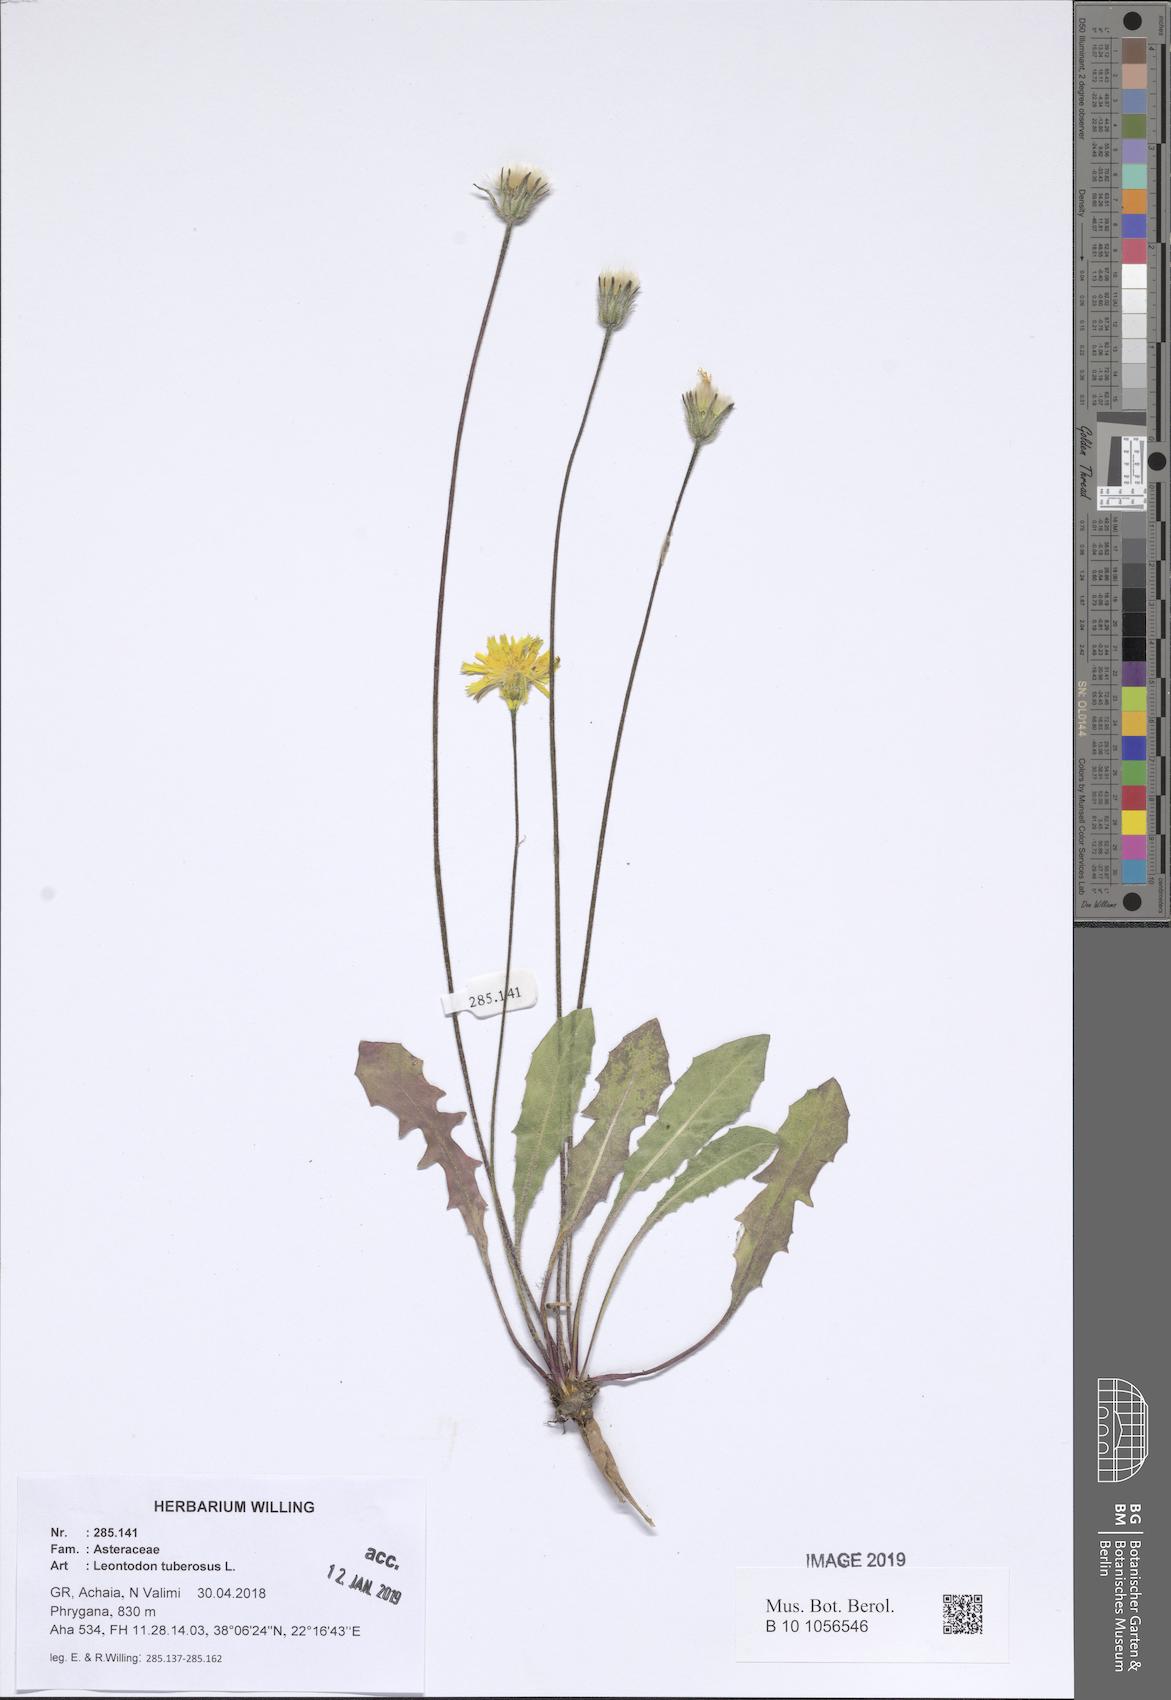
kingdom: Plantae
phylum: Tracheophyta
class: Magnoliopsida
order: Asterales
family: Asteraceae
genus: Thrincia
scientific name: Thrincia tuberosa
